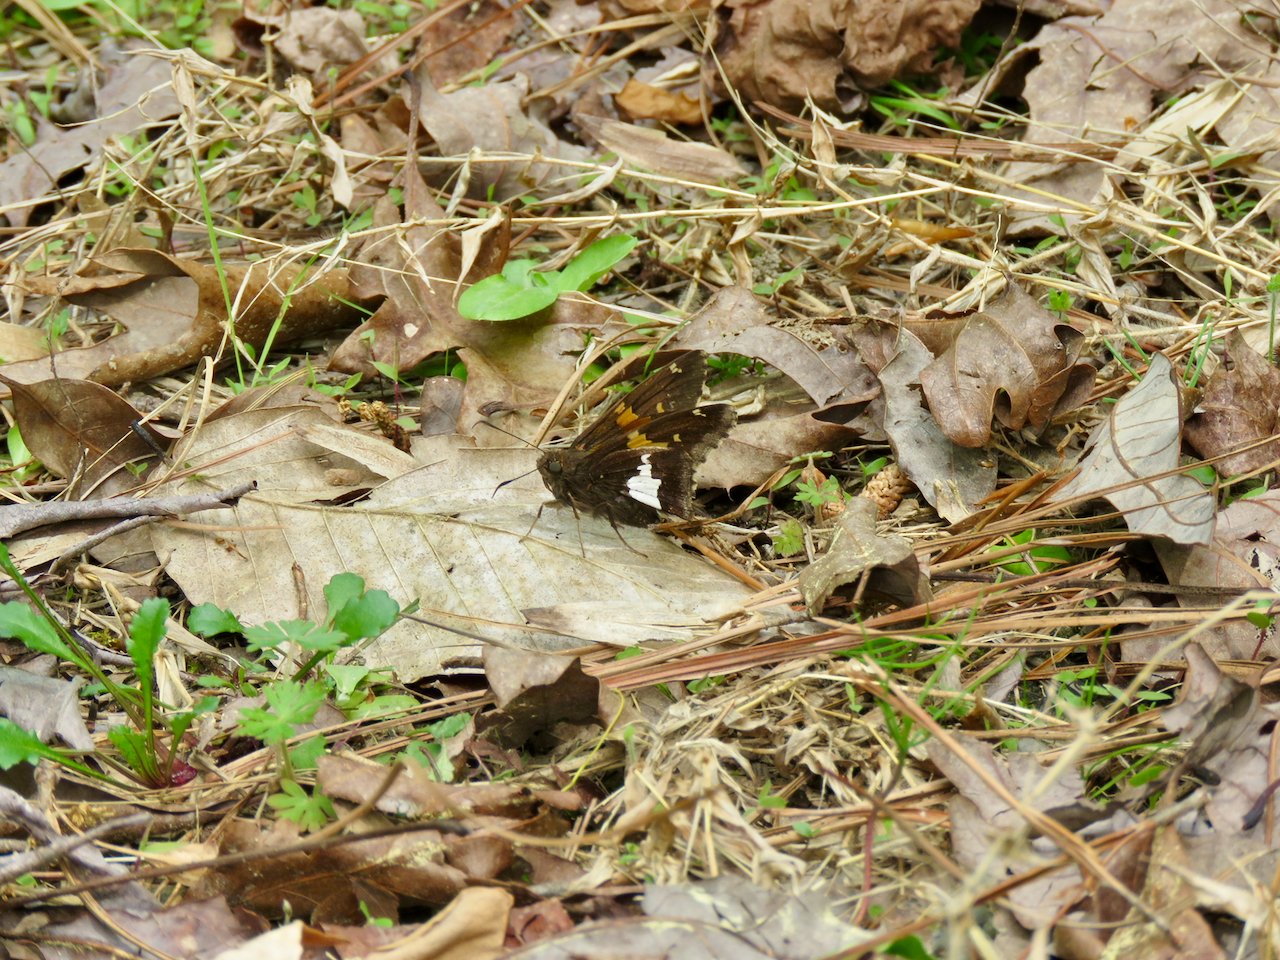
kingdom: Animalia
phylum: Arthropoda
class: Insecta
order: Lepidoptera
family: Hesperiidae
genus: Epargyreus
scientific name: Epargyreus clarus
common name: Silver-spotted Skipper
